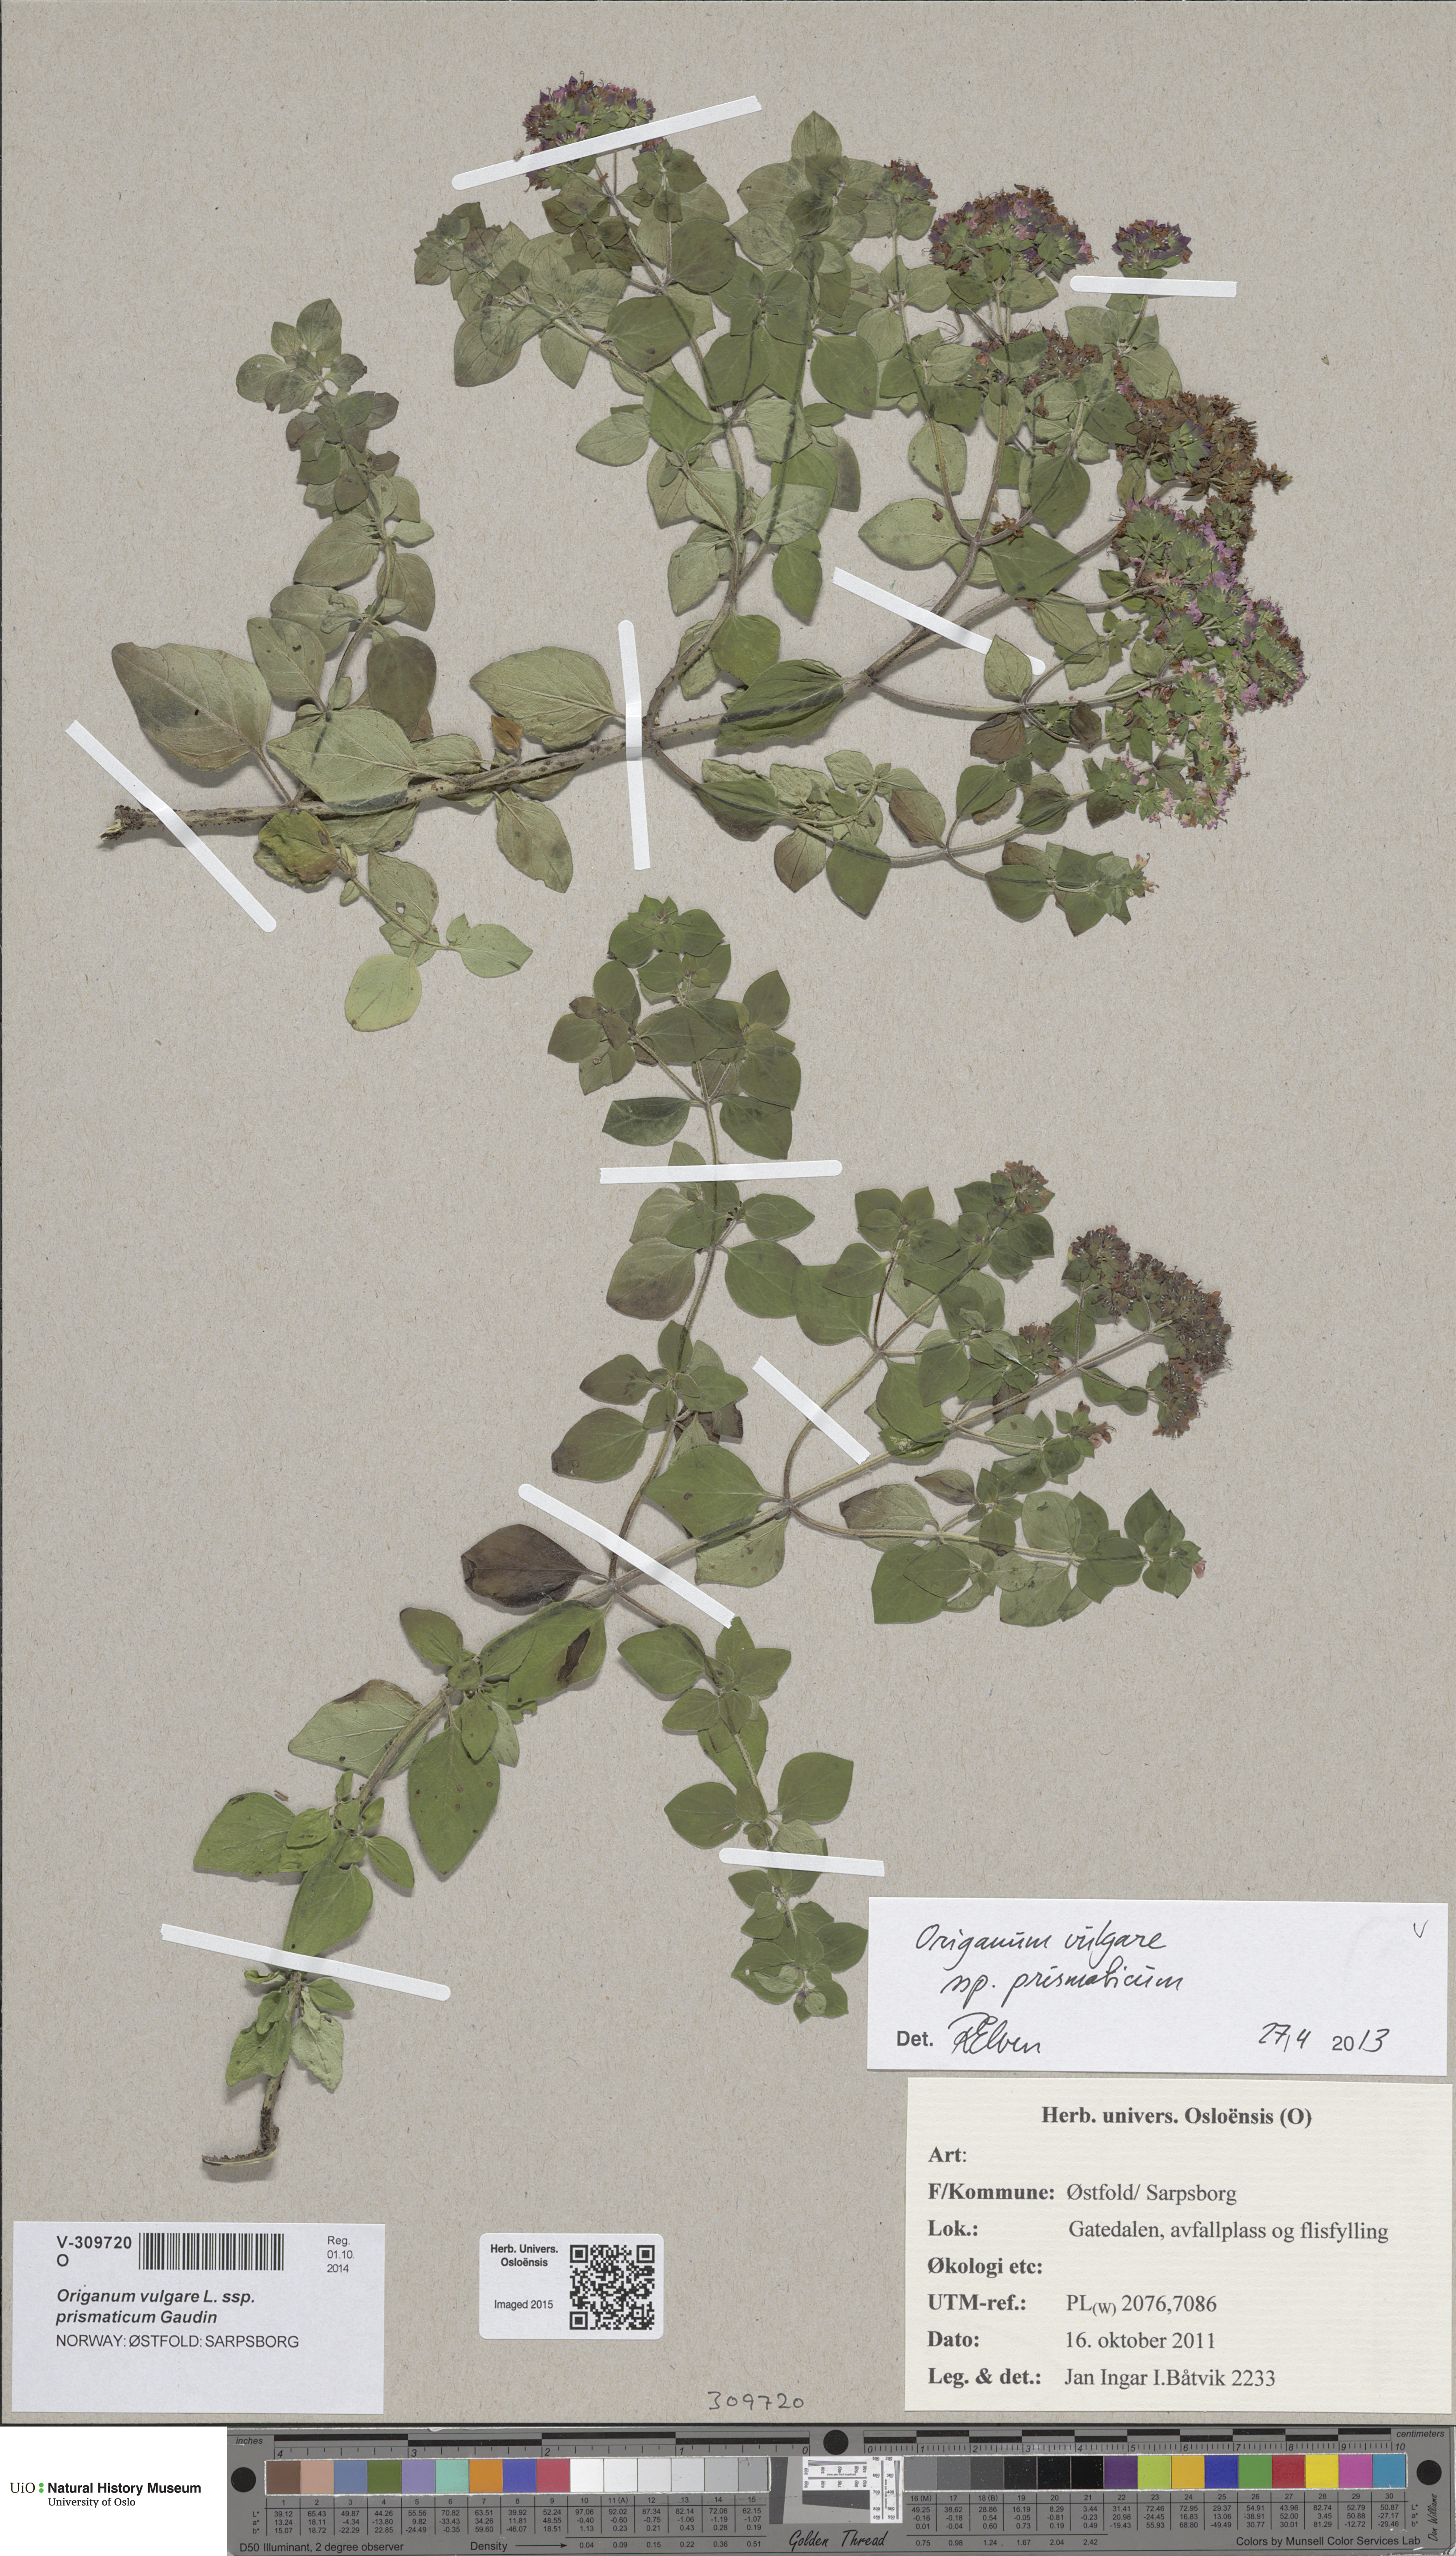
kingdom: Plantae
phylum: Tracheophyta
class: Magnoliopsida
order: Lamiales
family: Lamiaceae
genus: Origanum
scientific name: Origanum vulgare
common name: Wild marjoram
